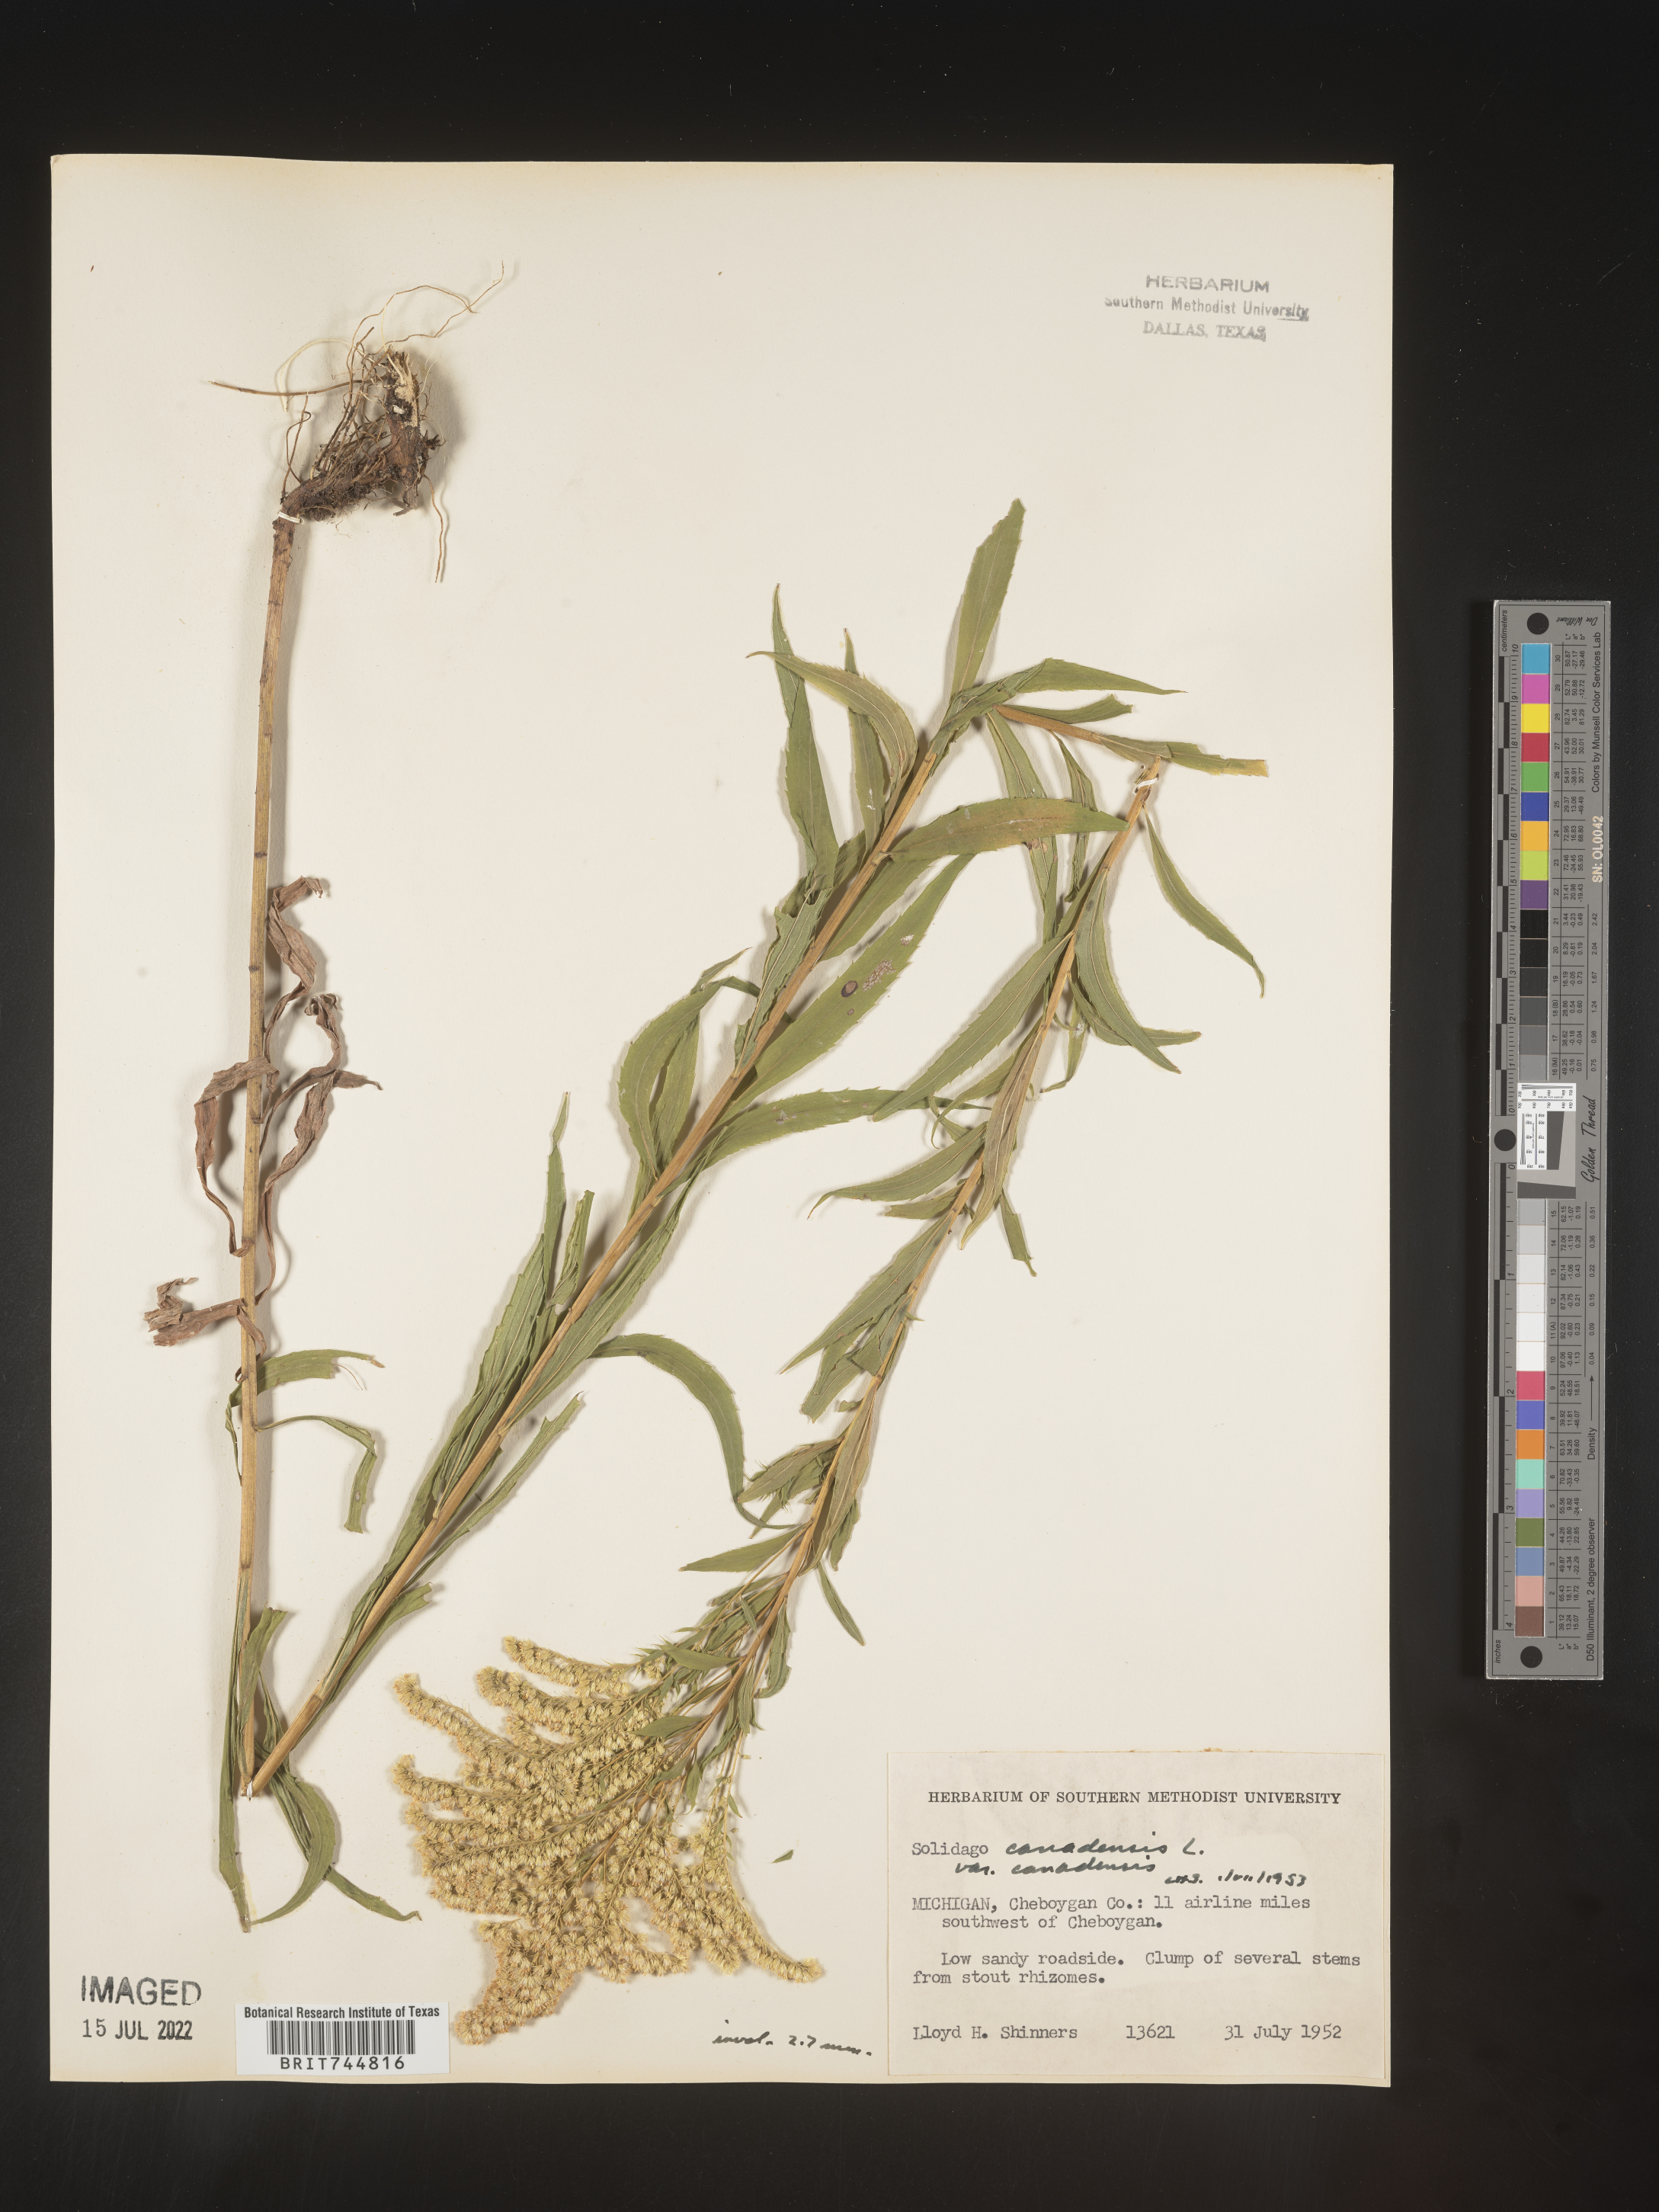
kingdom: Plantae
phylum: Tracheophyta
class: Magnoliopsida
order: Asterales
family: Asteraceae
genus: Solidago
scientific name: Solidago canadensis
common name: Canada goldenrod
